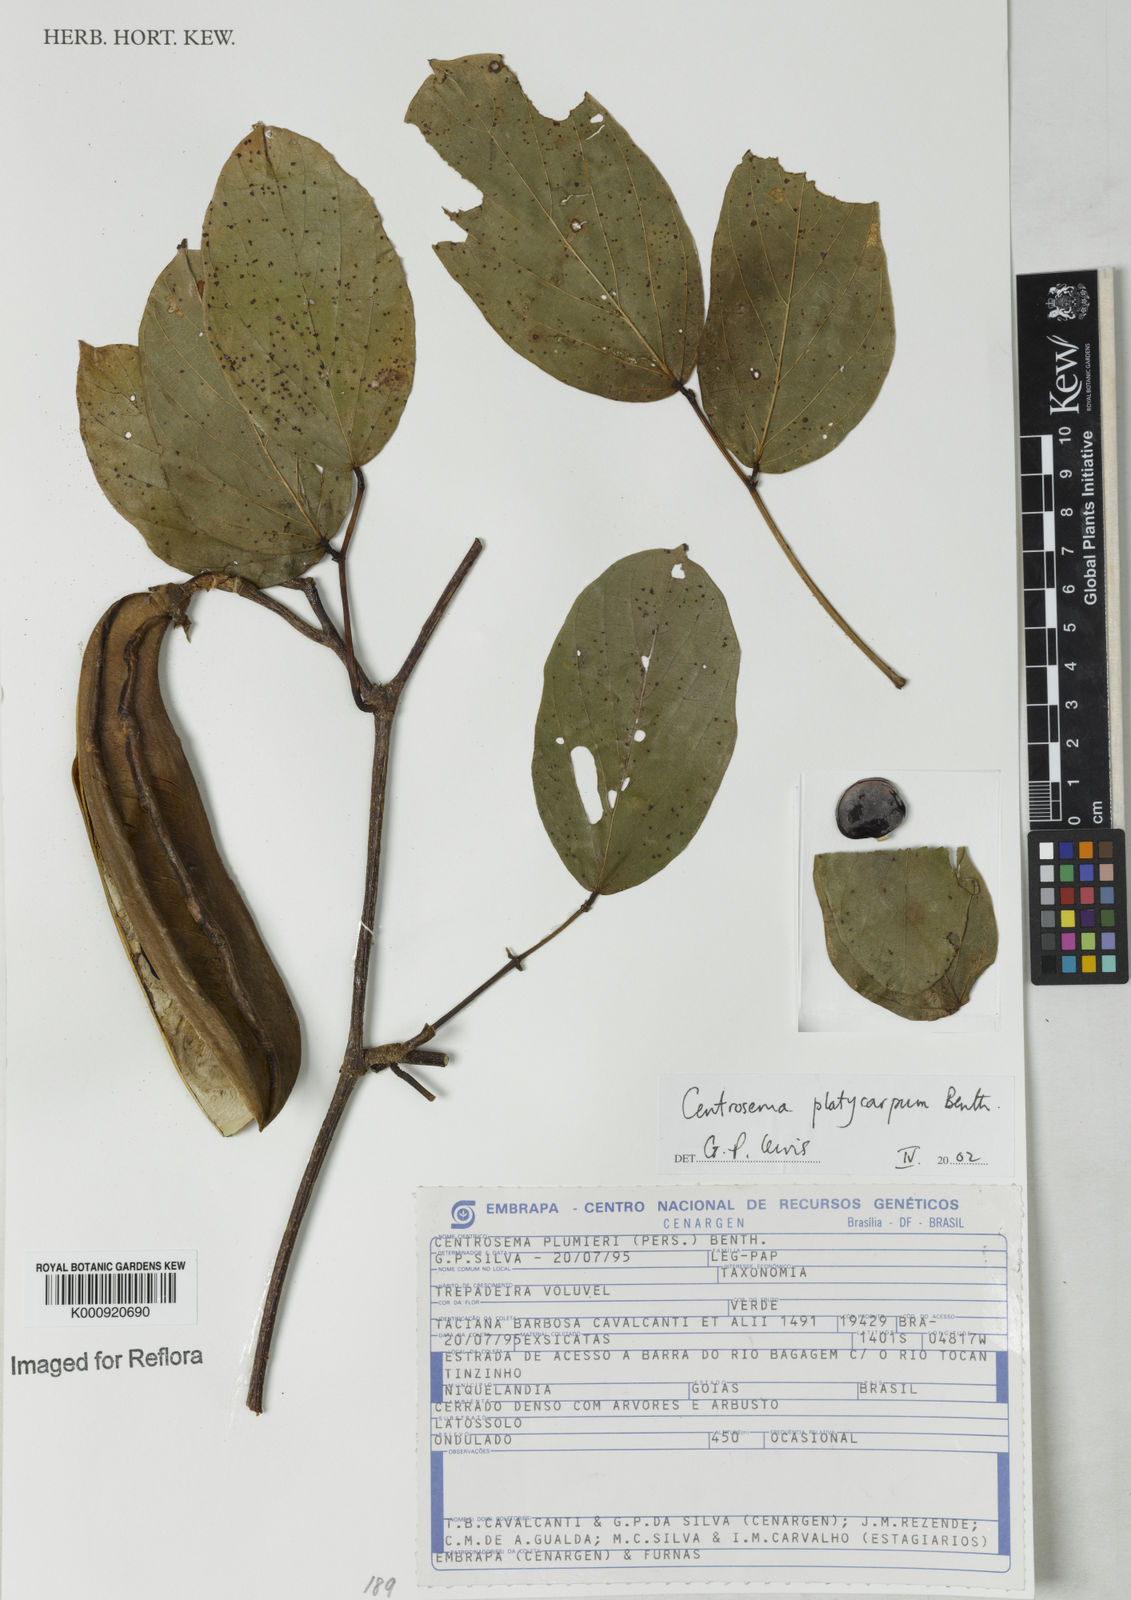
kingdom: Plantae
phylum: Tracheophyta
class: Magnoliopsida
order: Fabales
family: Fabaceae
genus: Centrosema
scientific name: Centrosema platycarpum
